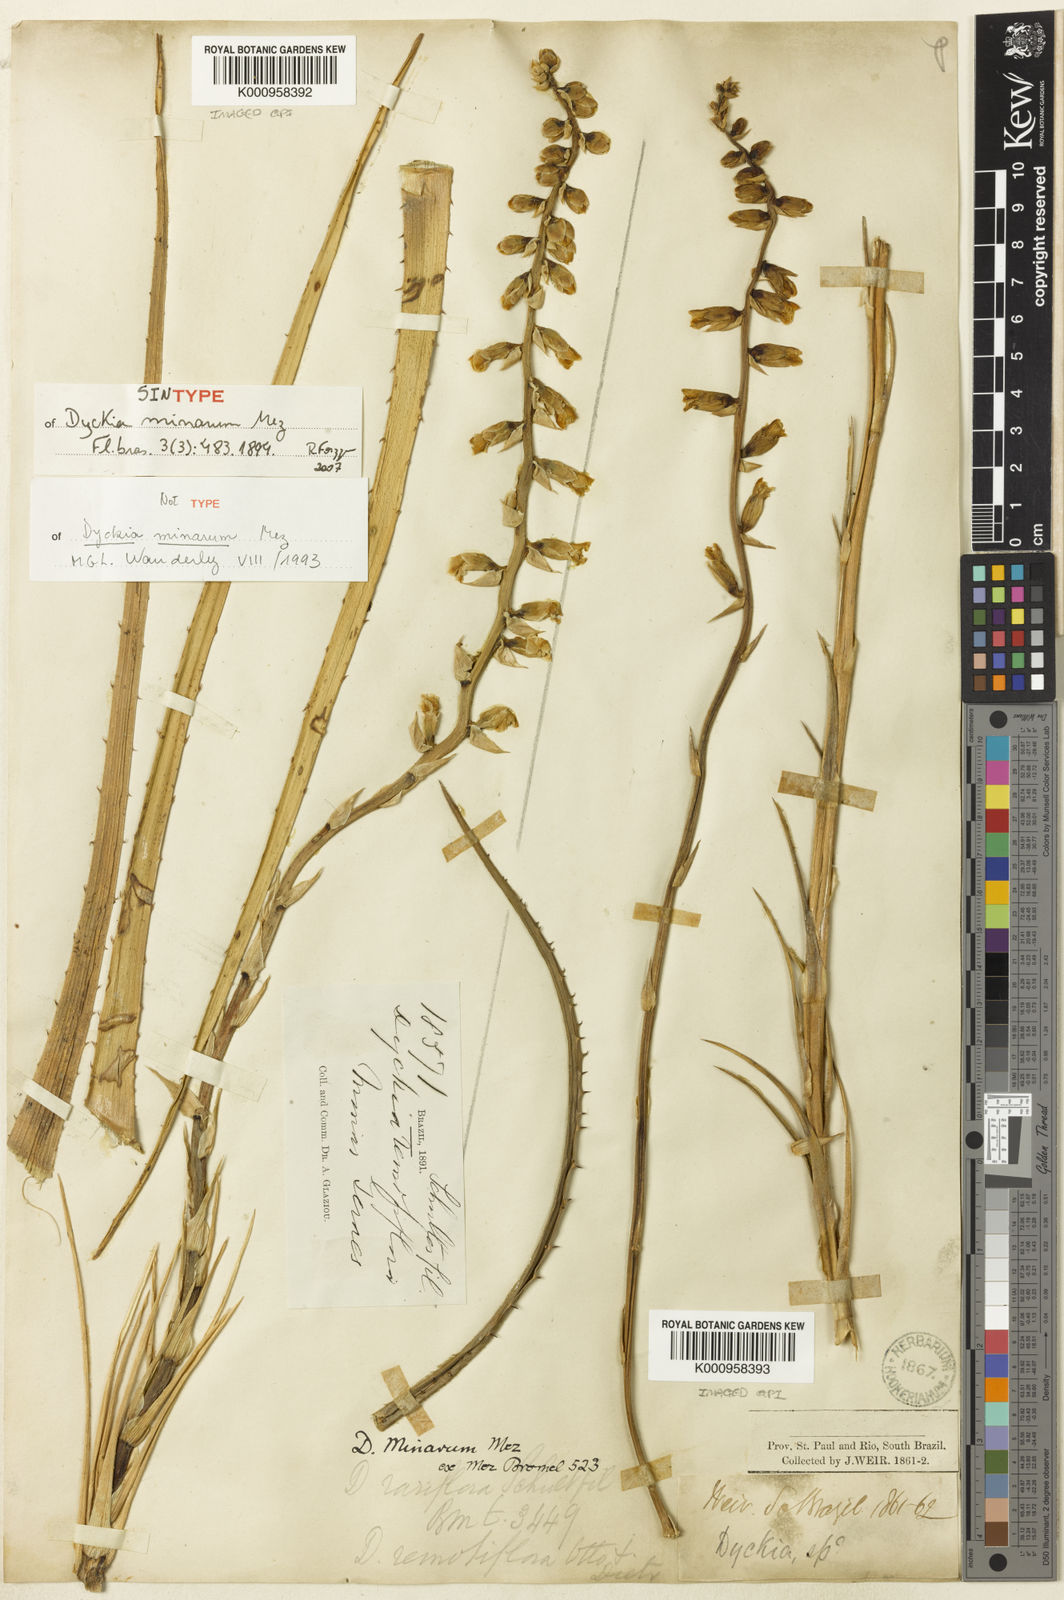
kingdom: Plantae
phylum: Tracheophyta
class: Liliopsida
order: Poales
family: Bromeliaceae
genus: Dyckia
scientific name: Dyckia minarum
